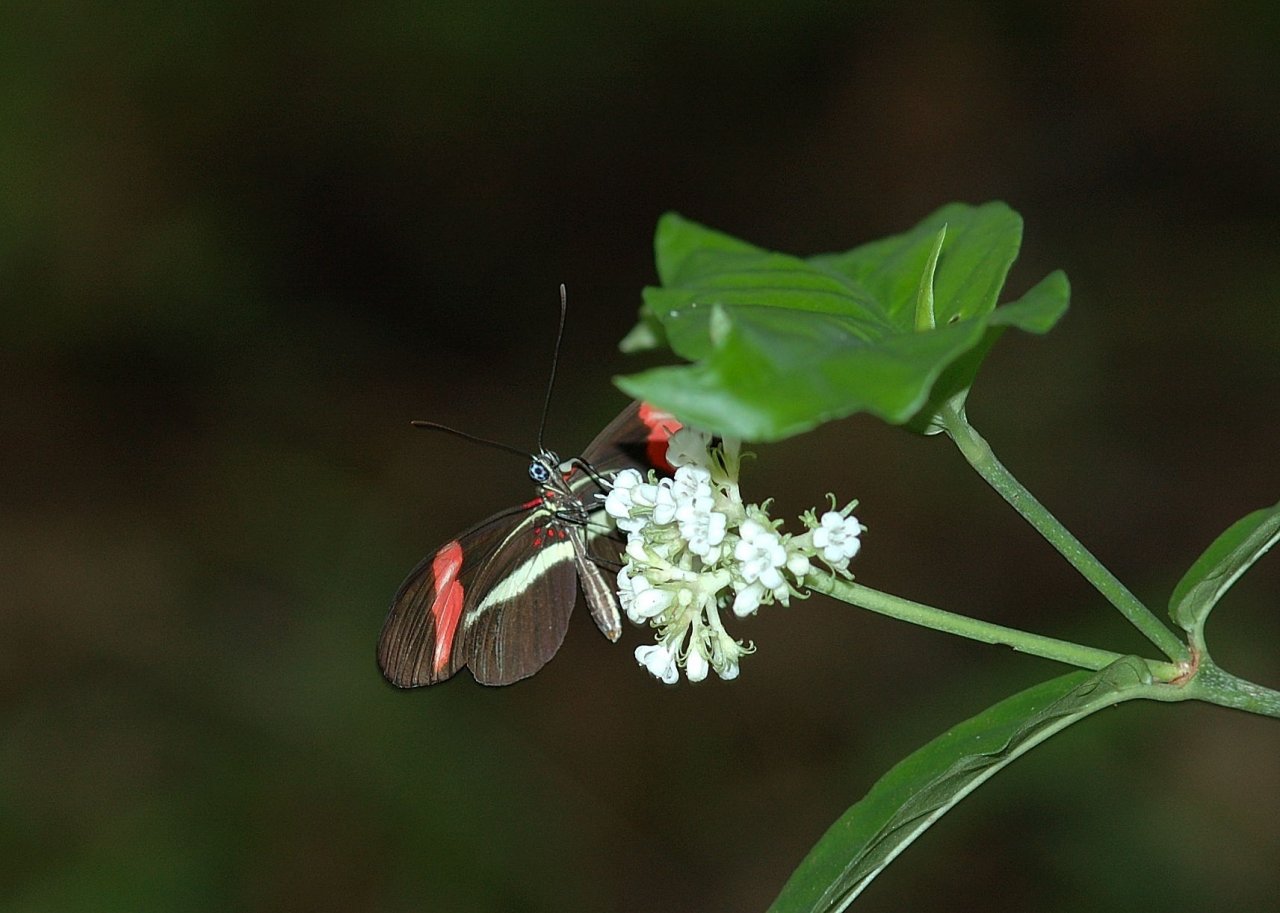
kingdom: Animalia
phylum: Arthropoda
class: Insecta
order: Lepidoptera
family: Nymphalidae
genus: Heliconius
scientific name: Heliconius erato
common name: Erato Heliconian
